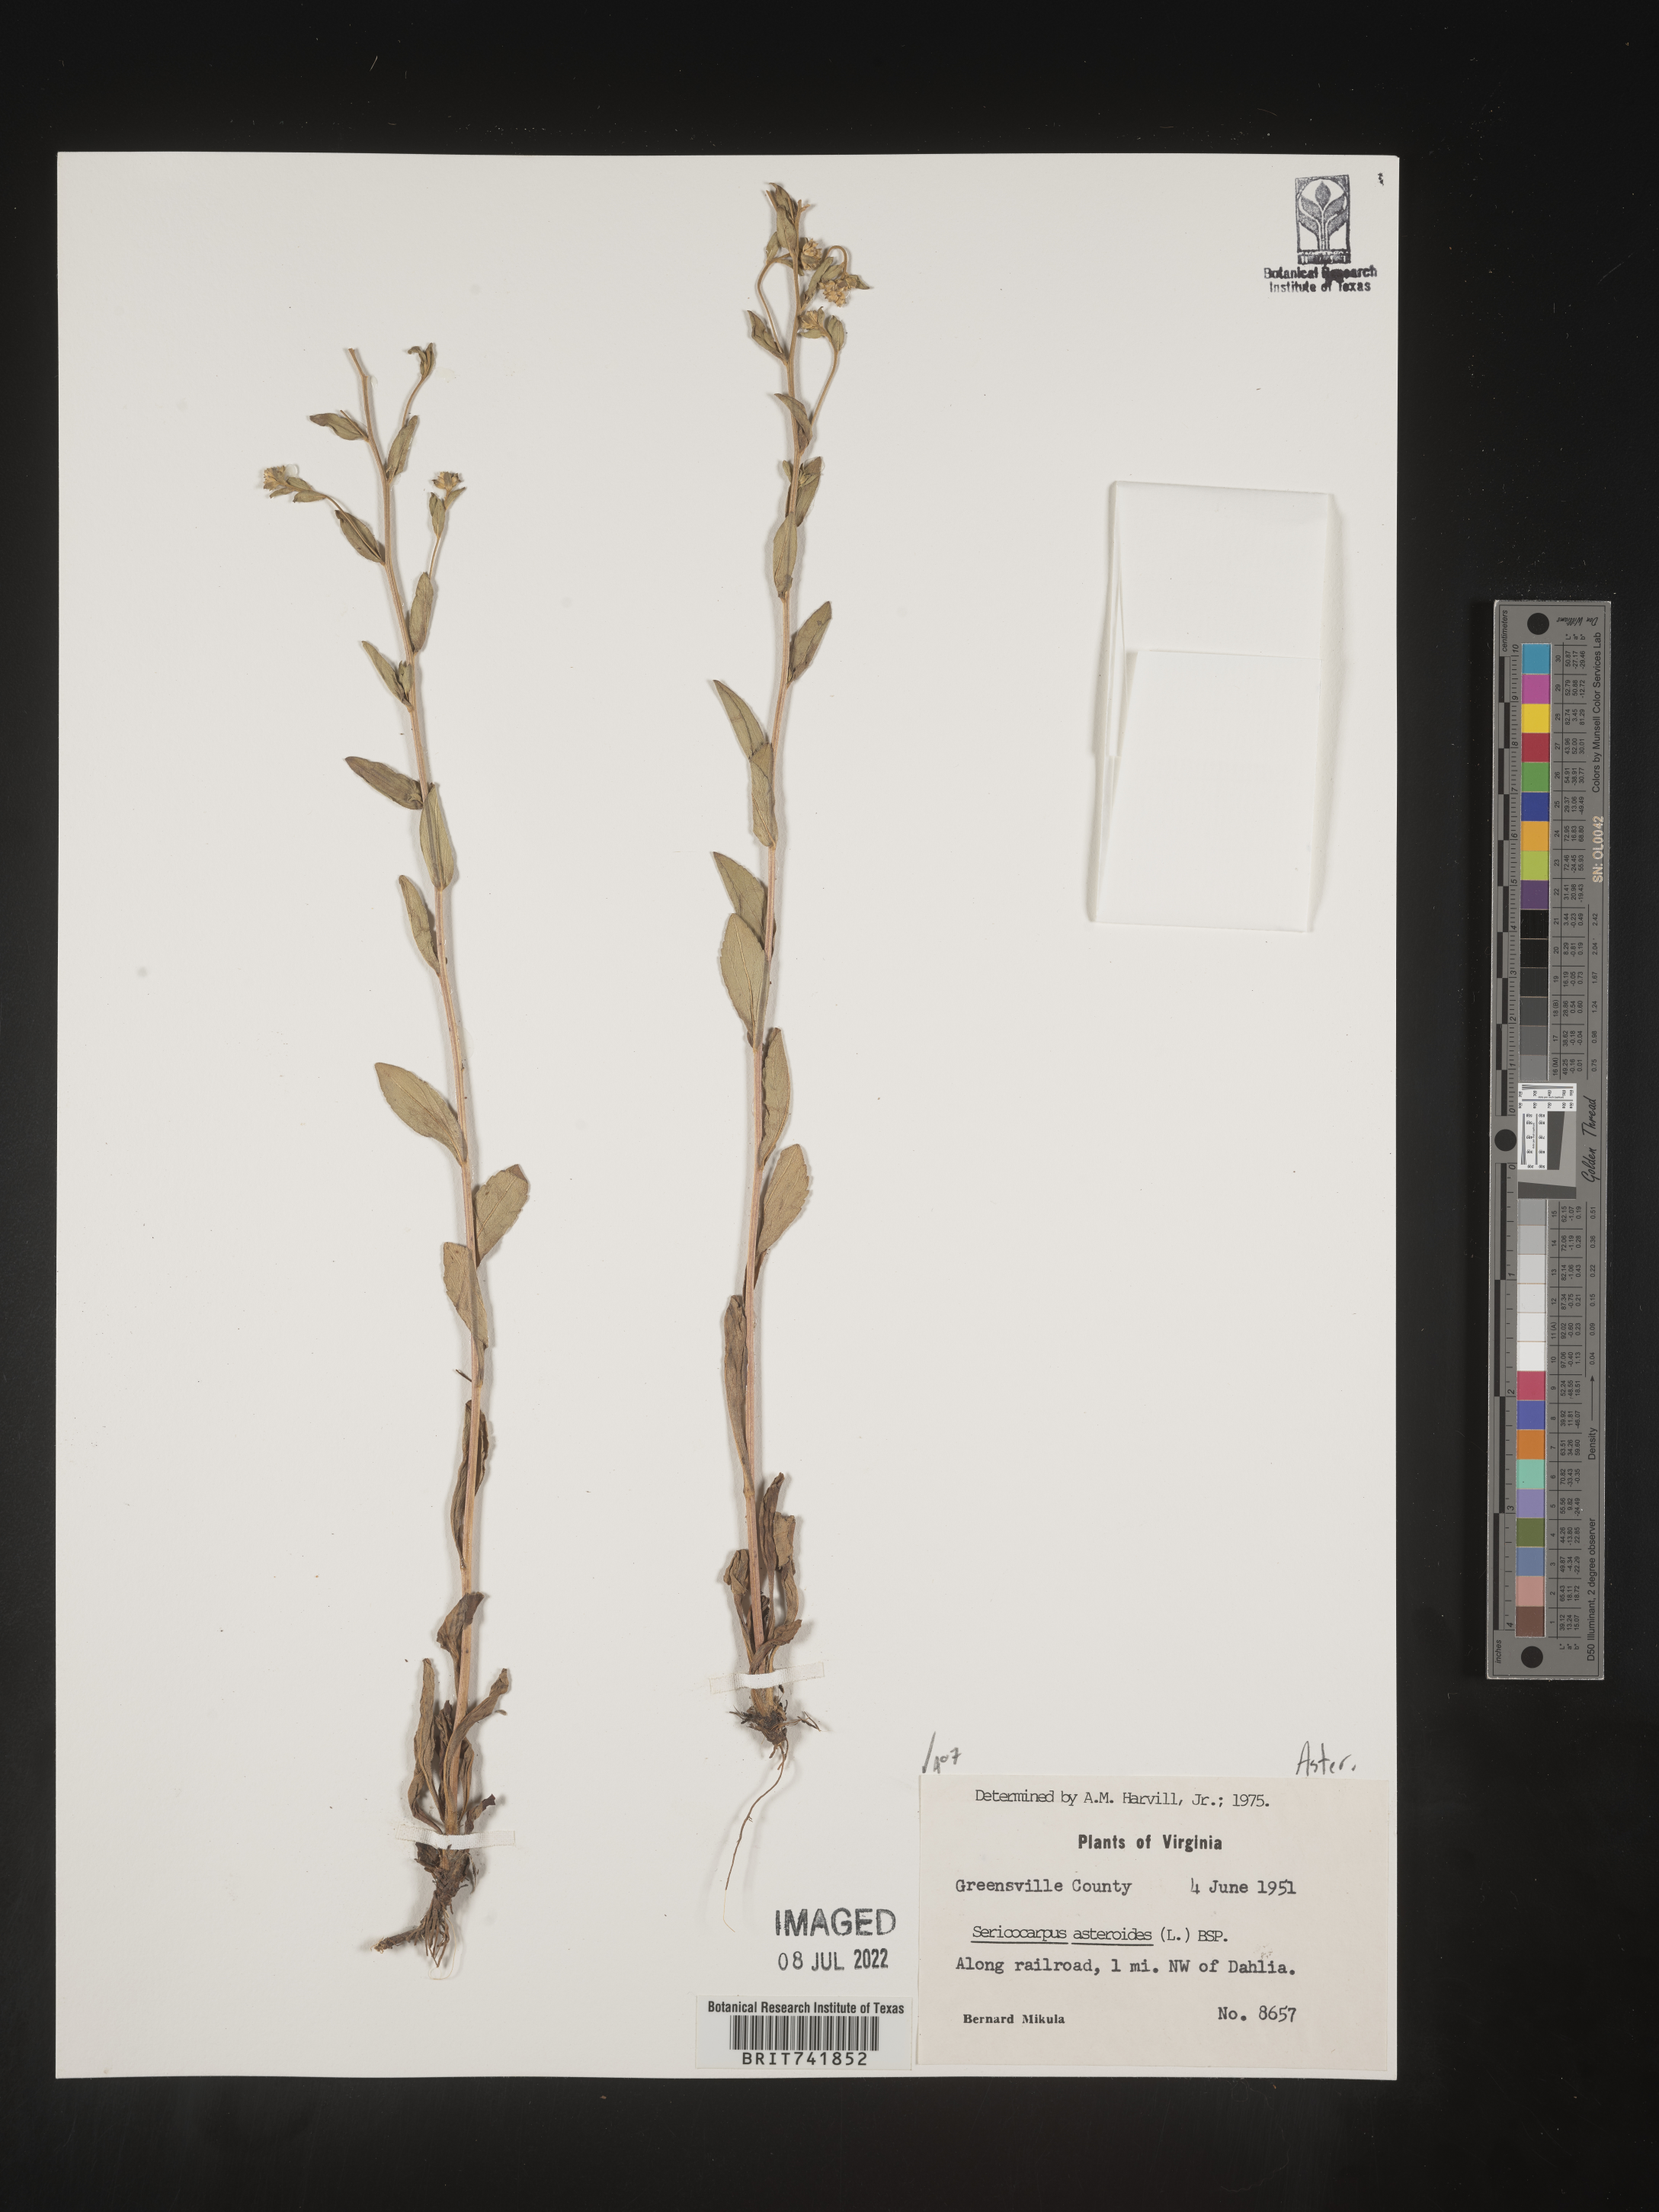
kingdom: Plantae
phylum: Tracheophyta
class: Magnoliopsida
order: Asterales
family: Asteraceae
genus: Sericocarpus
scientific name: Sericocarpus asteroides
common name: Toothed white-top aster
